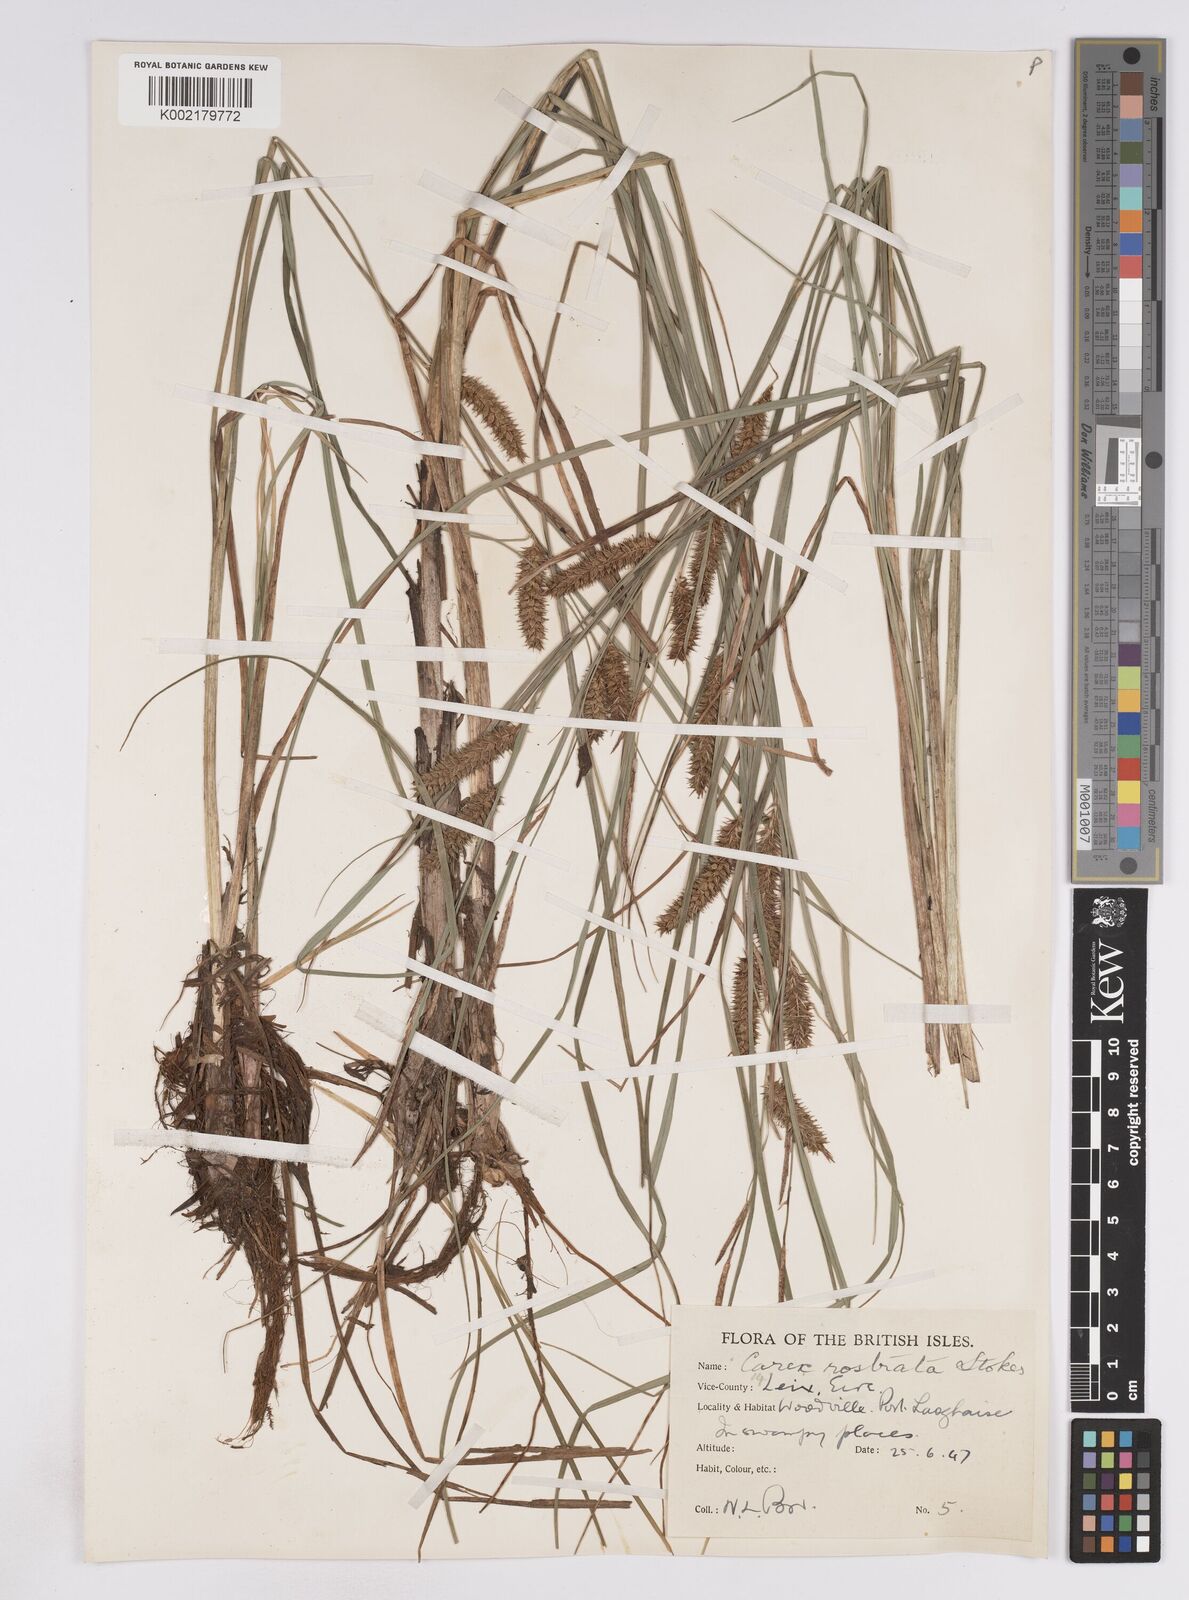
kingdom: Plantae
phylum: Tracheophyta
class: Liliopsida
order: Poales
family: Cyperaceae
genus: Carex
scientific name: Carex rostrata
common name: Bottle sedge
